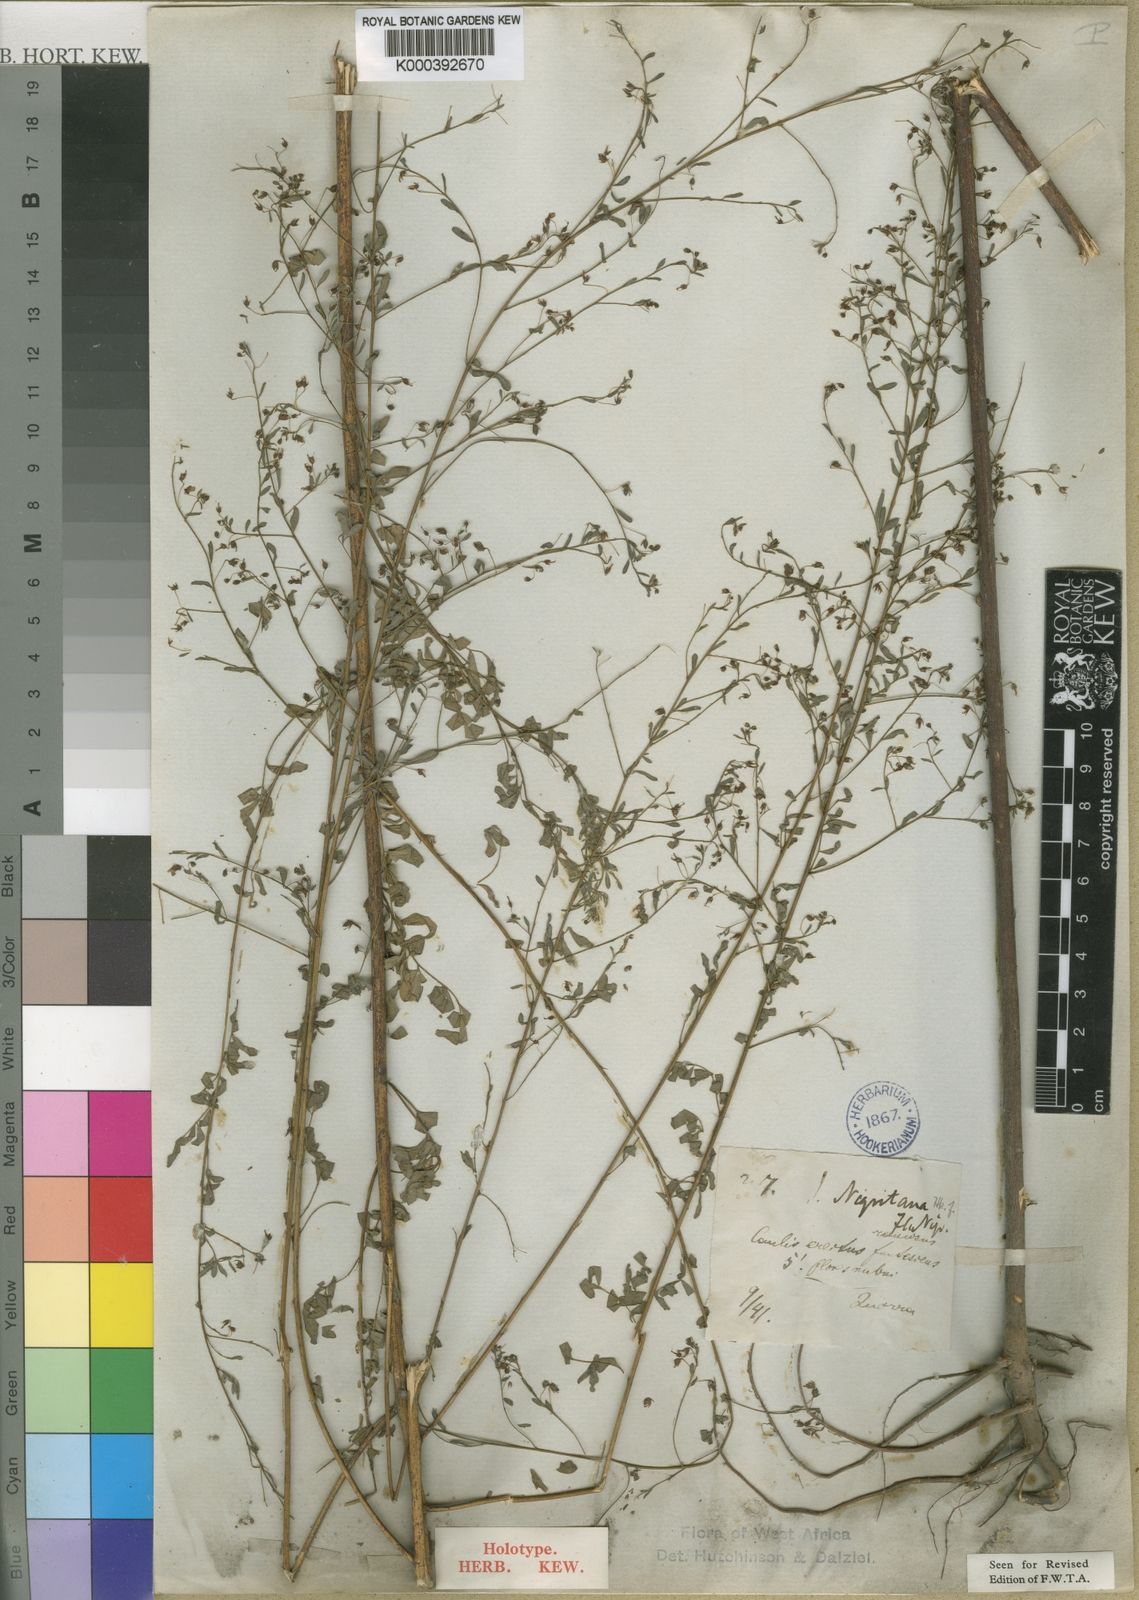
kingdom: Plantae
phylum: Tracheophyta
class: Magnoliopsida
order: Fabales
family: Fabaceae
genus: Indigofera
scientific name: Indigofera nigritana
